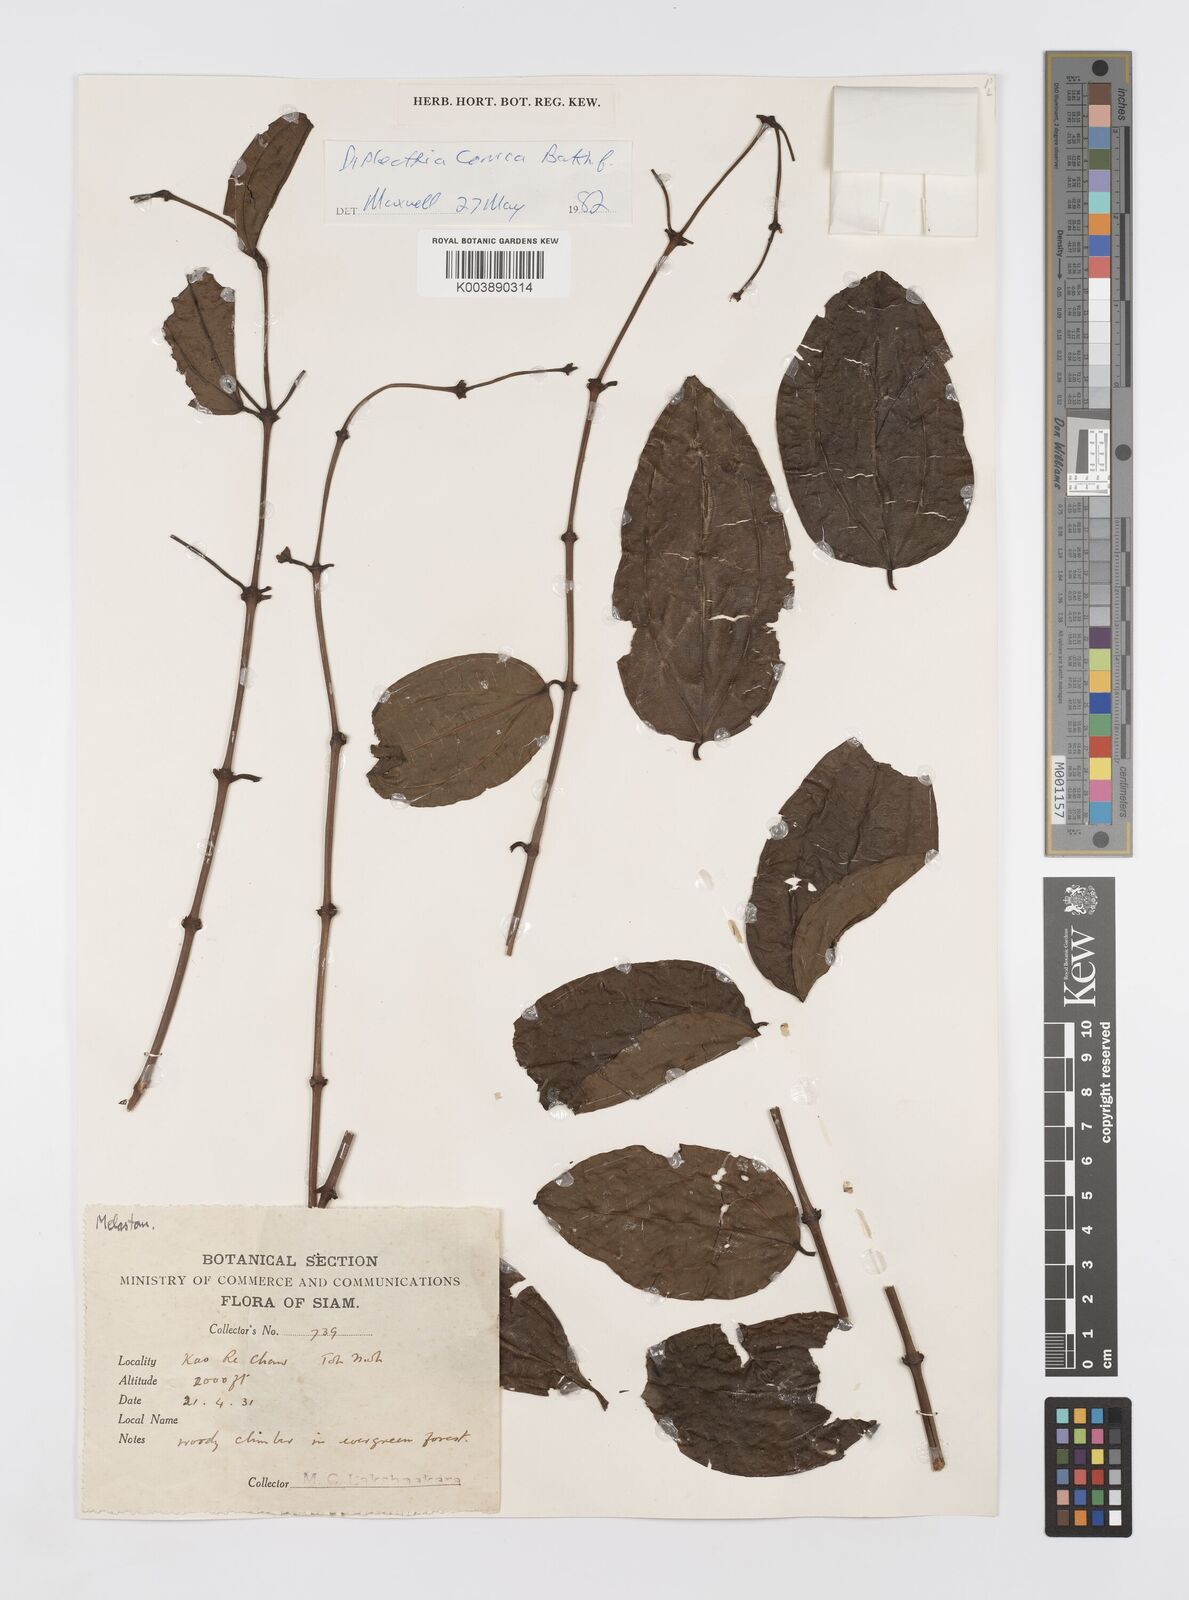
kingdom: Plantae
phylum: Tracheophyta
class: Magnoliopsida
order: Myrtales
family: Melastomataceae
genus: Diplectria
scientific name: Diplectria conica
